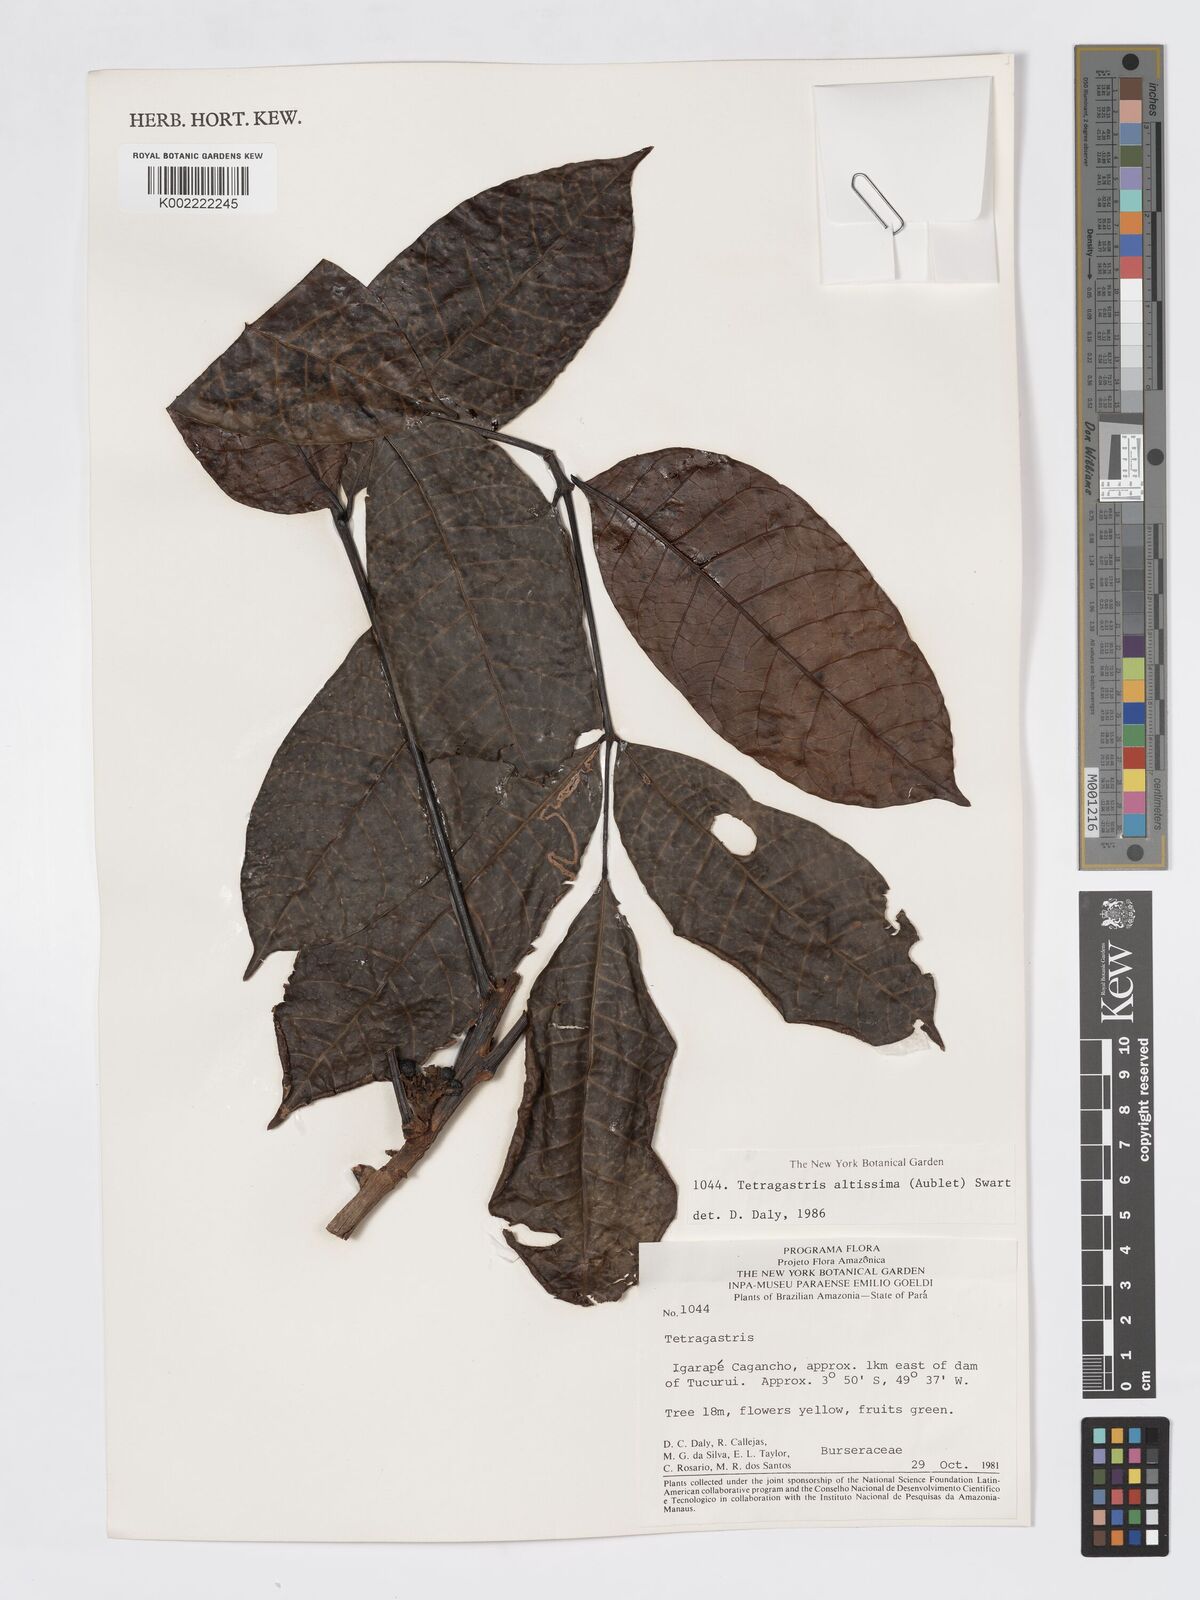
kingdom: Plantae
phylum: Tracheophyta
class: Magnoliopsida
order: Sapindales
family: Burseraceae
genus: Tetragastris
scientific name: Tetragastris altissima
